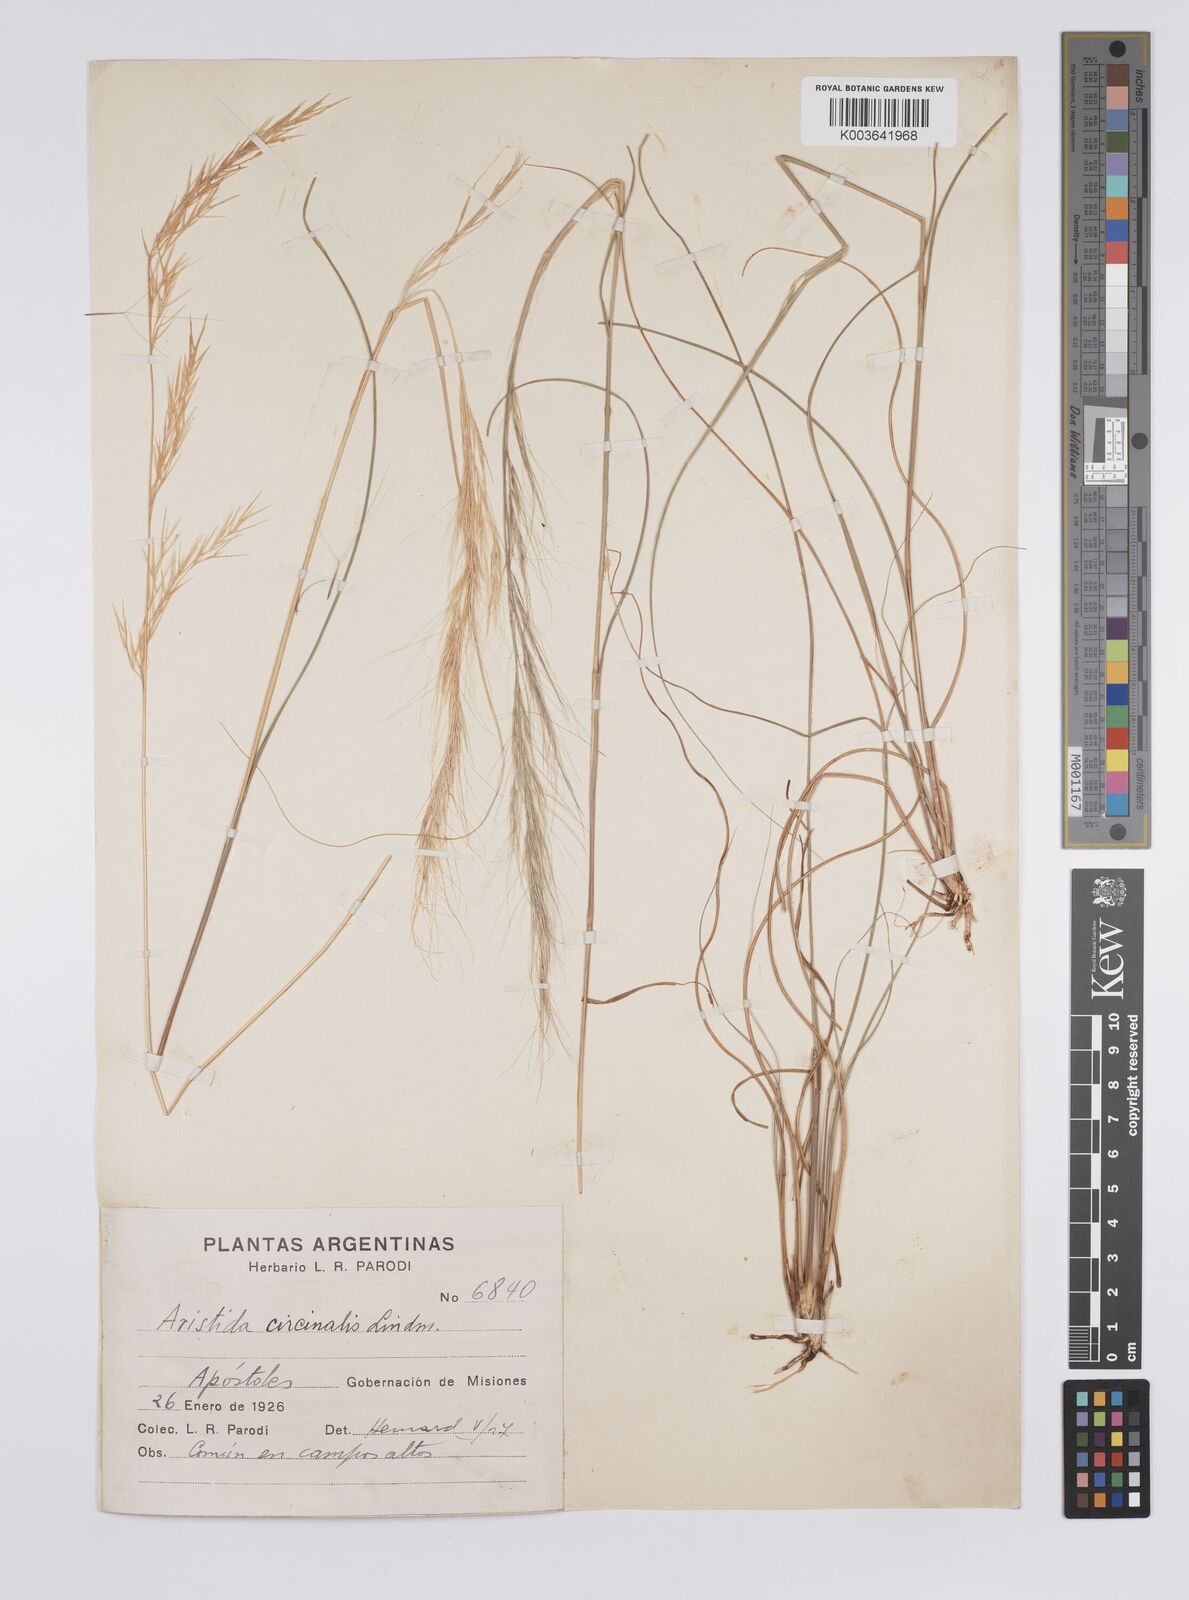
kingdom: Plantae
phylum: Tracheophyta
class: Liliopsida
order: Poales
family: Poaceae
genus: Aristida
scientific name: Aristida circinalis
